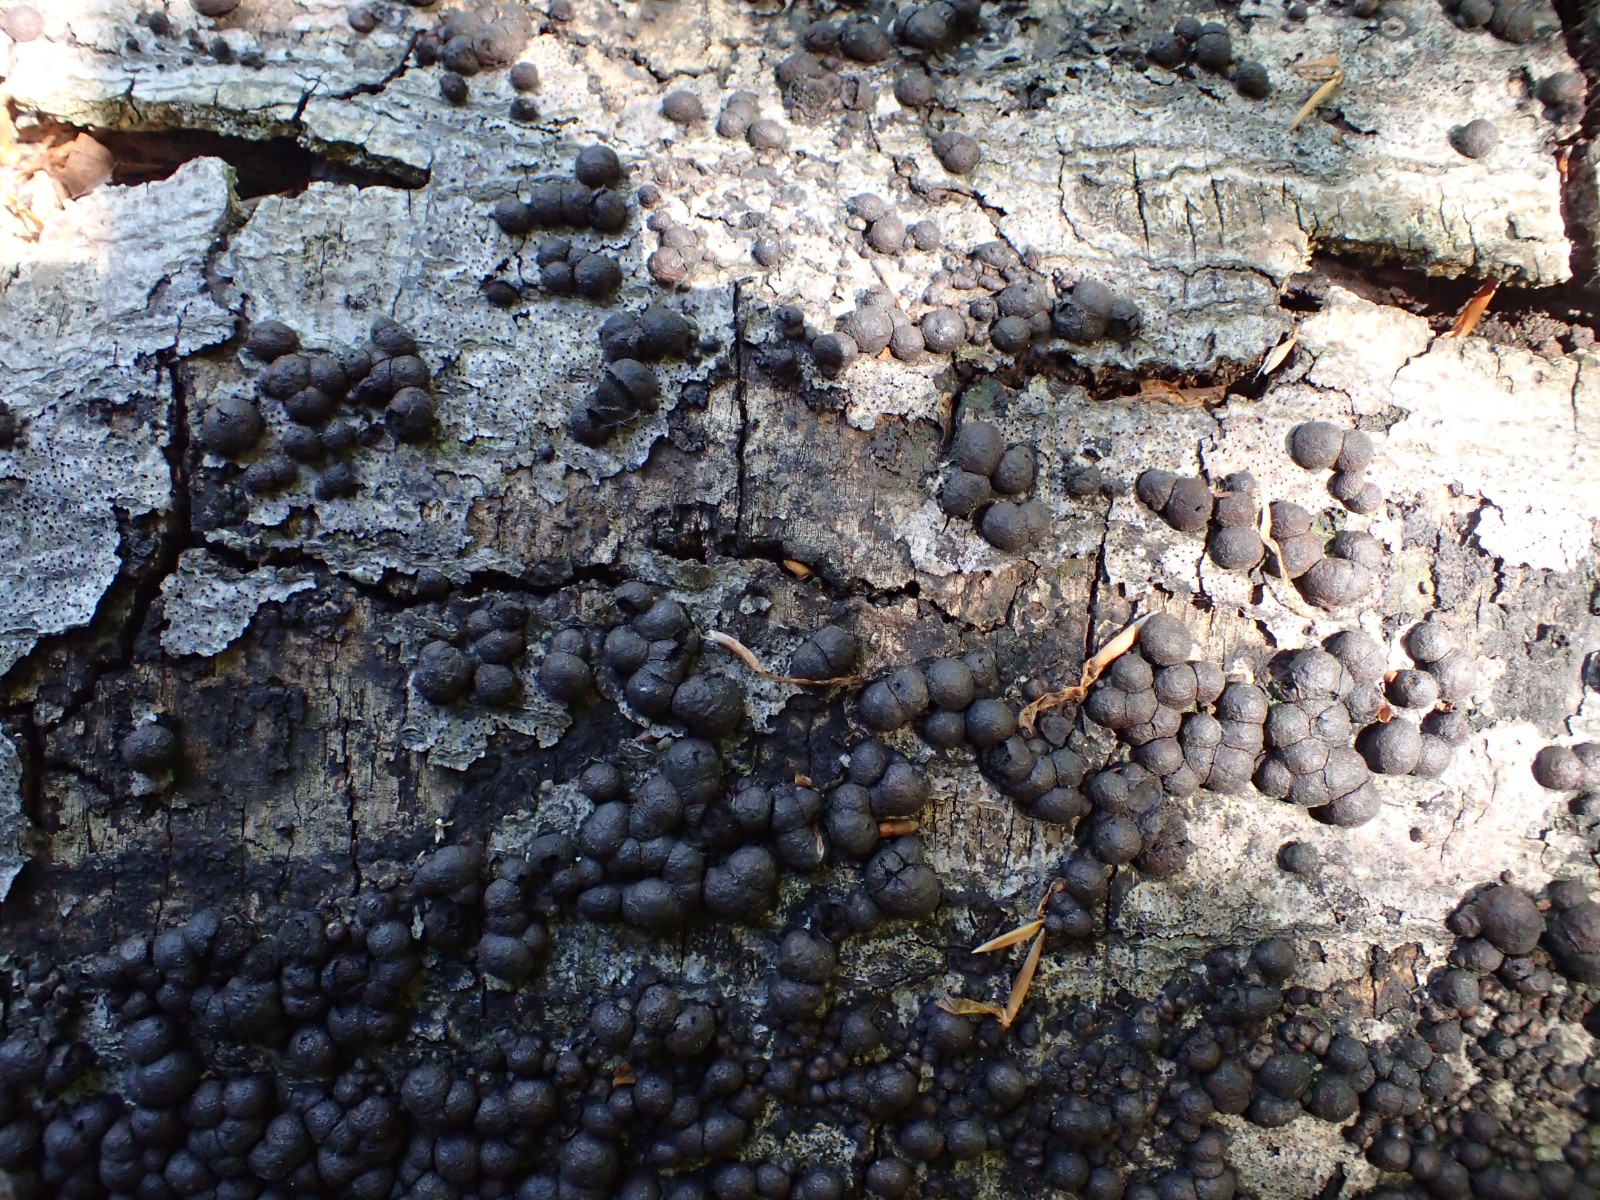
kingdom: Fungi
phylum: Ascomycota
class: Sordariomycetes
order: Xylariales
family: Hypoxylaceae
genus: Hypoxylon
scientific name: Hypoxylon fragiforme
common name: kuljordbær
